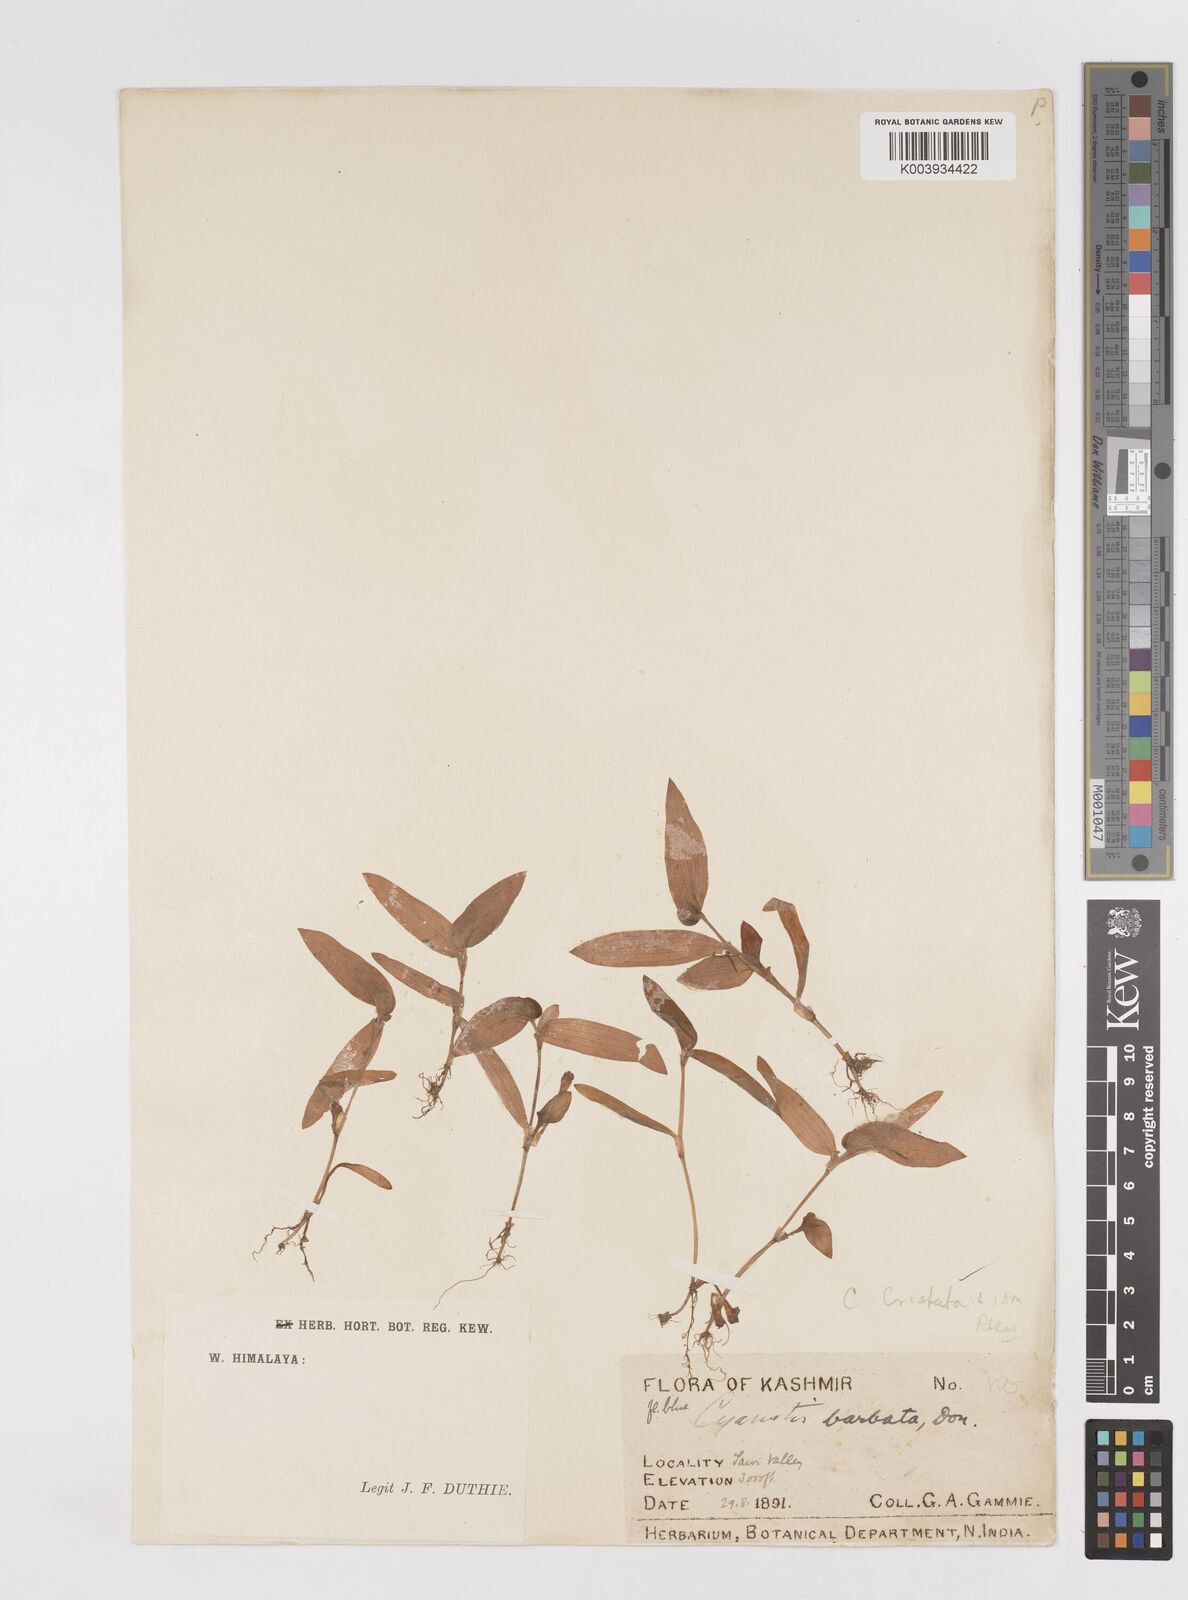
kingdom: Plantae
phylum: Tracheophyta
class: Liliopsida
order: Commelinales
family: Commelinaceae
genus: Cyanotis
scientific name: Cyanotis cristata
